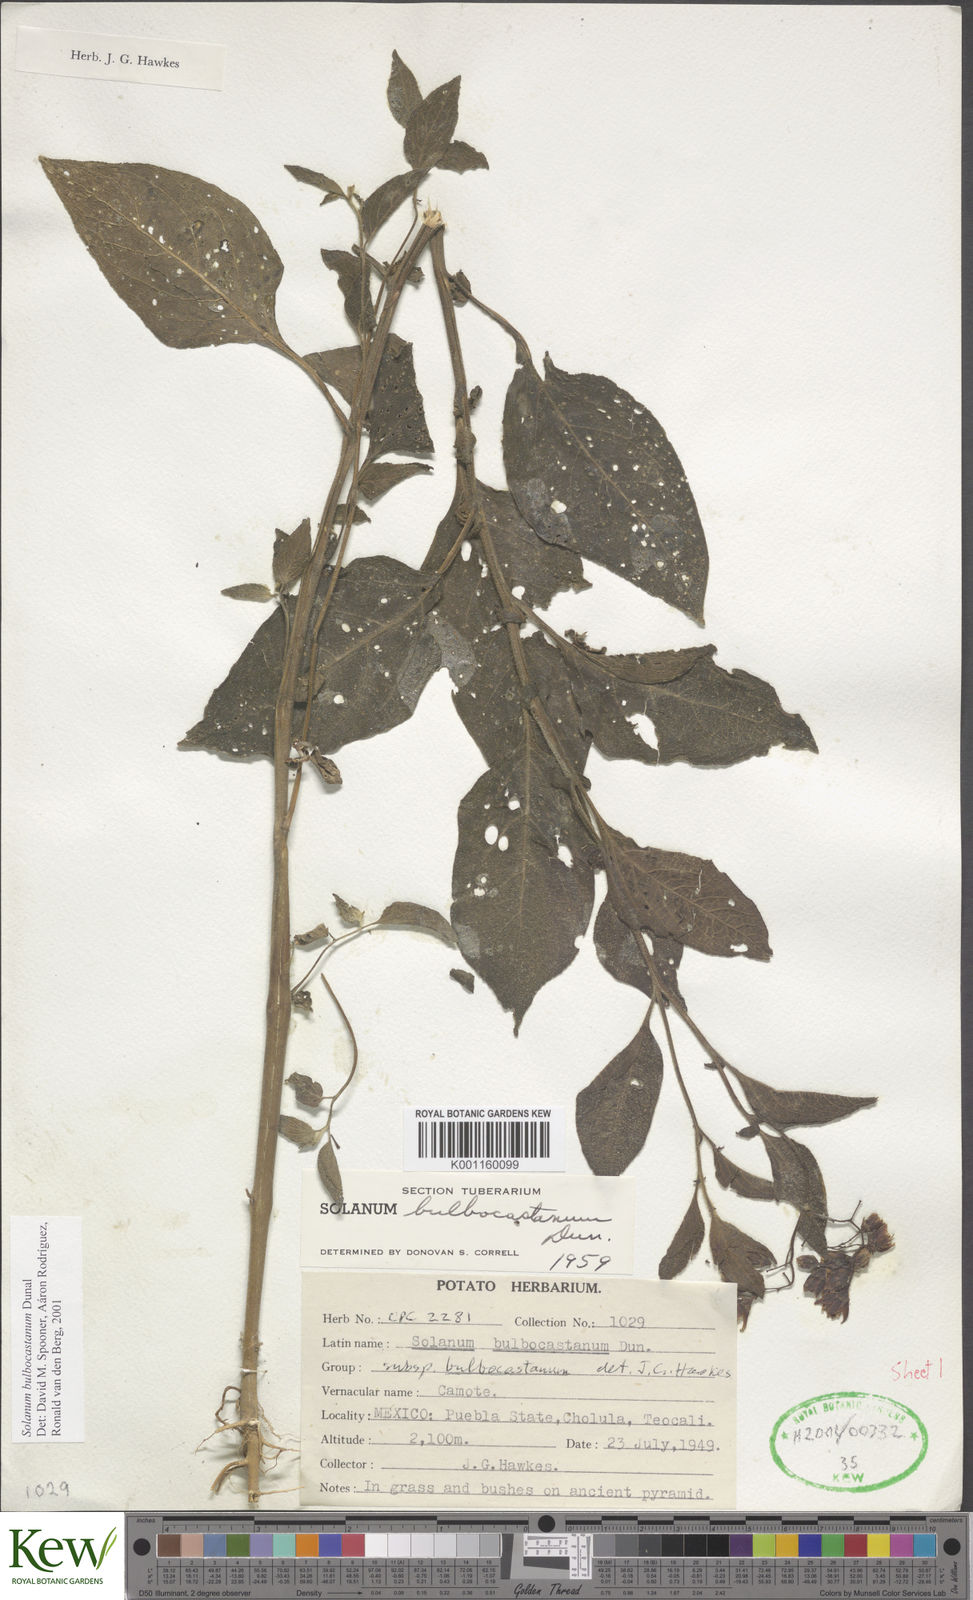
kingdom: Plantae
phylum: Tracheophyta
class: Magnoliopsida
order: Solanales
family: Solanaceae
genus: Solanum
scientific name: Solanum bulbocastanum
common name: Ornamental nightshade
